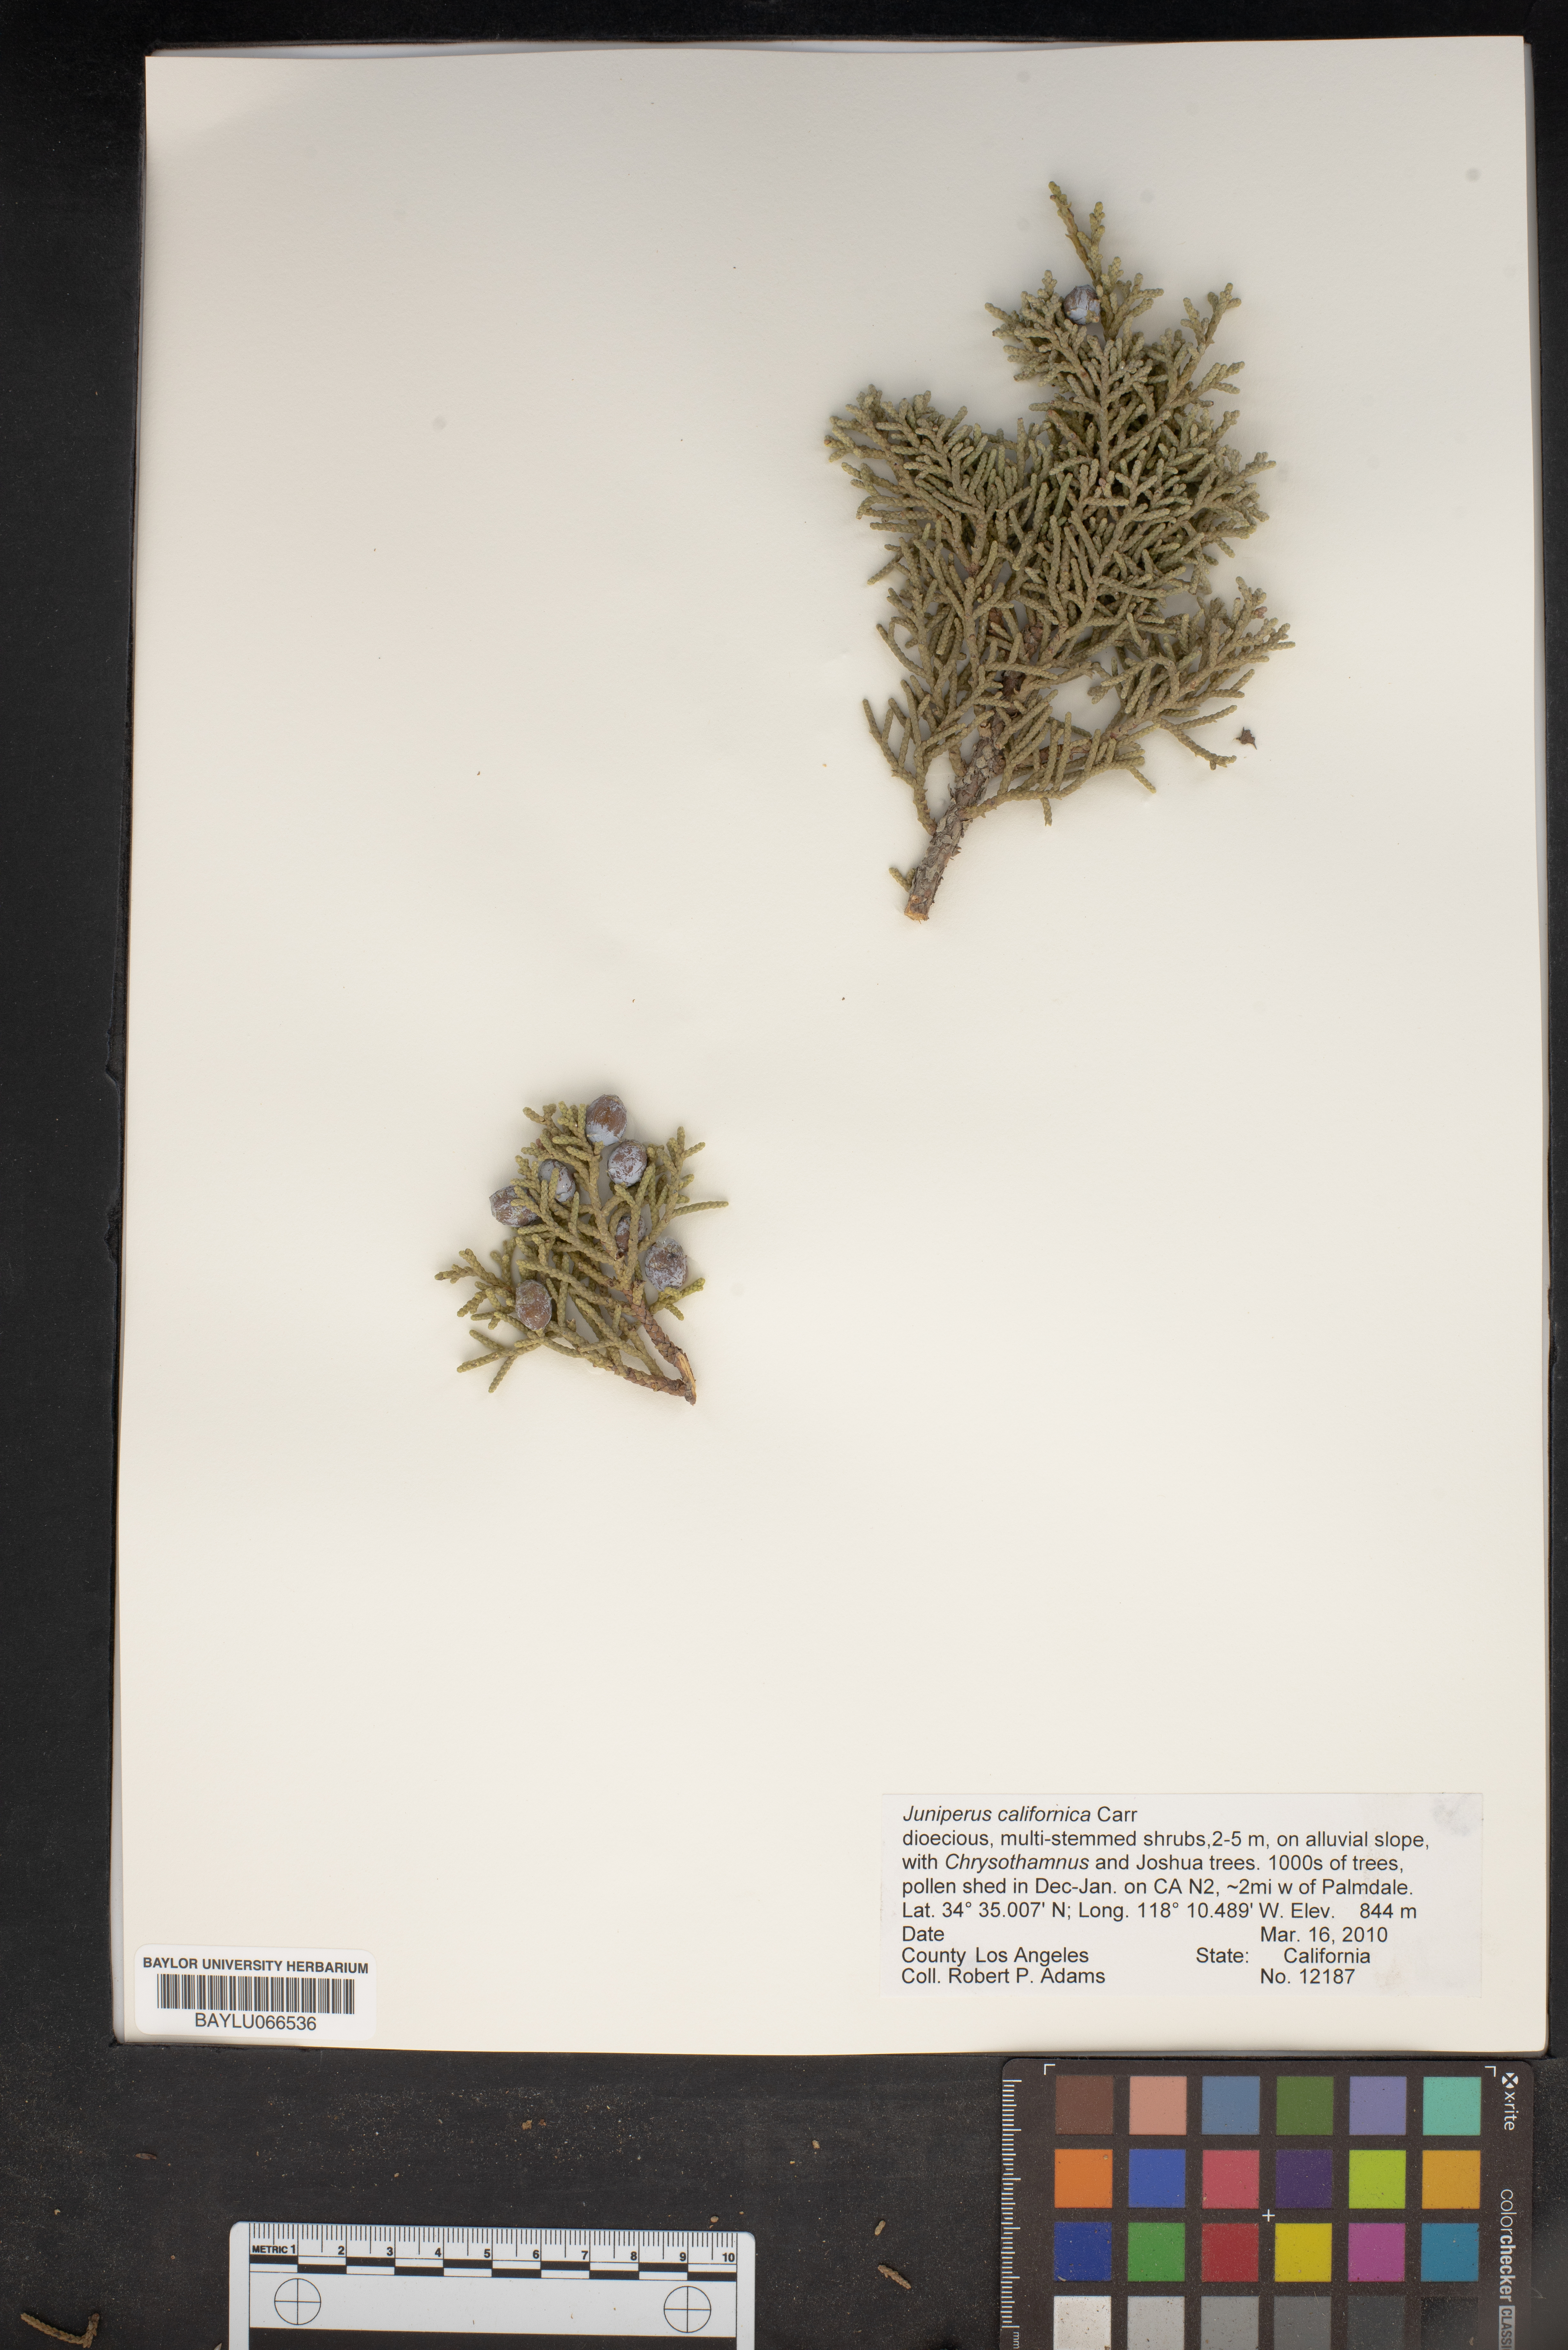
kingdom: Plantae
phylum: Tracheophyta
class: Pinopsida
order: Pinales
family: Cupressaceae
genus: Juniperus
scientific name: Juniperus californica
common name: California juniper
